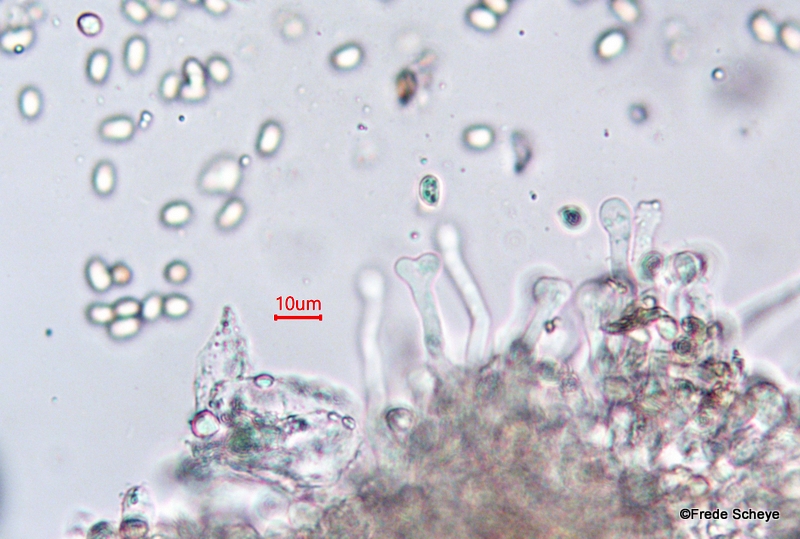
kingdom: Fungi
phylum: Basidiomycota
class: Agaricomycetes
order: Agaricales
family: Tubariaceae
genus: Tubaria
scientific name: Tubaria furfuracea
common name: kliddet fnughat
